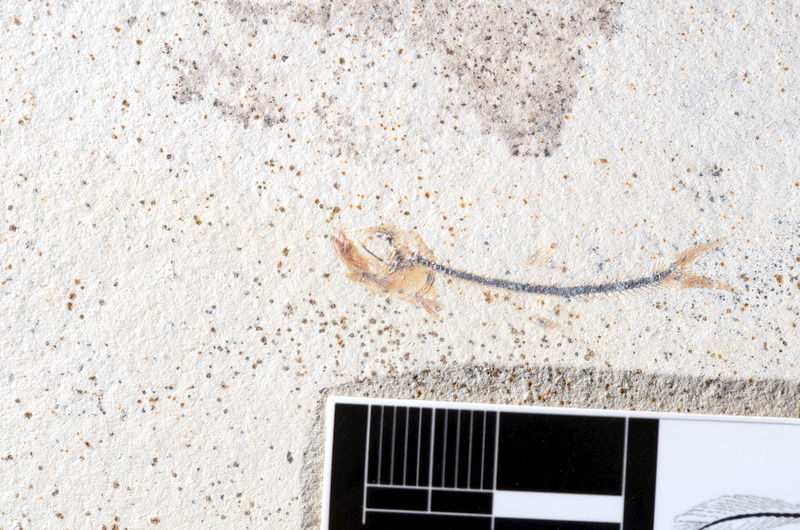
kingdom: Animalia
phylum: Chordata
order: Salmoniformes
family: Orthogonikleithridae
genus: Orthogonikleithrus
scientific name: Orthogonikleithrus hoelli
